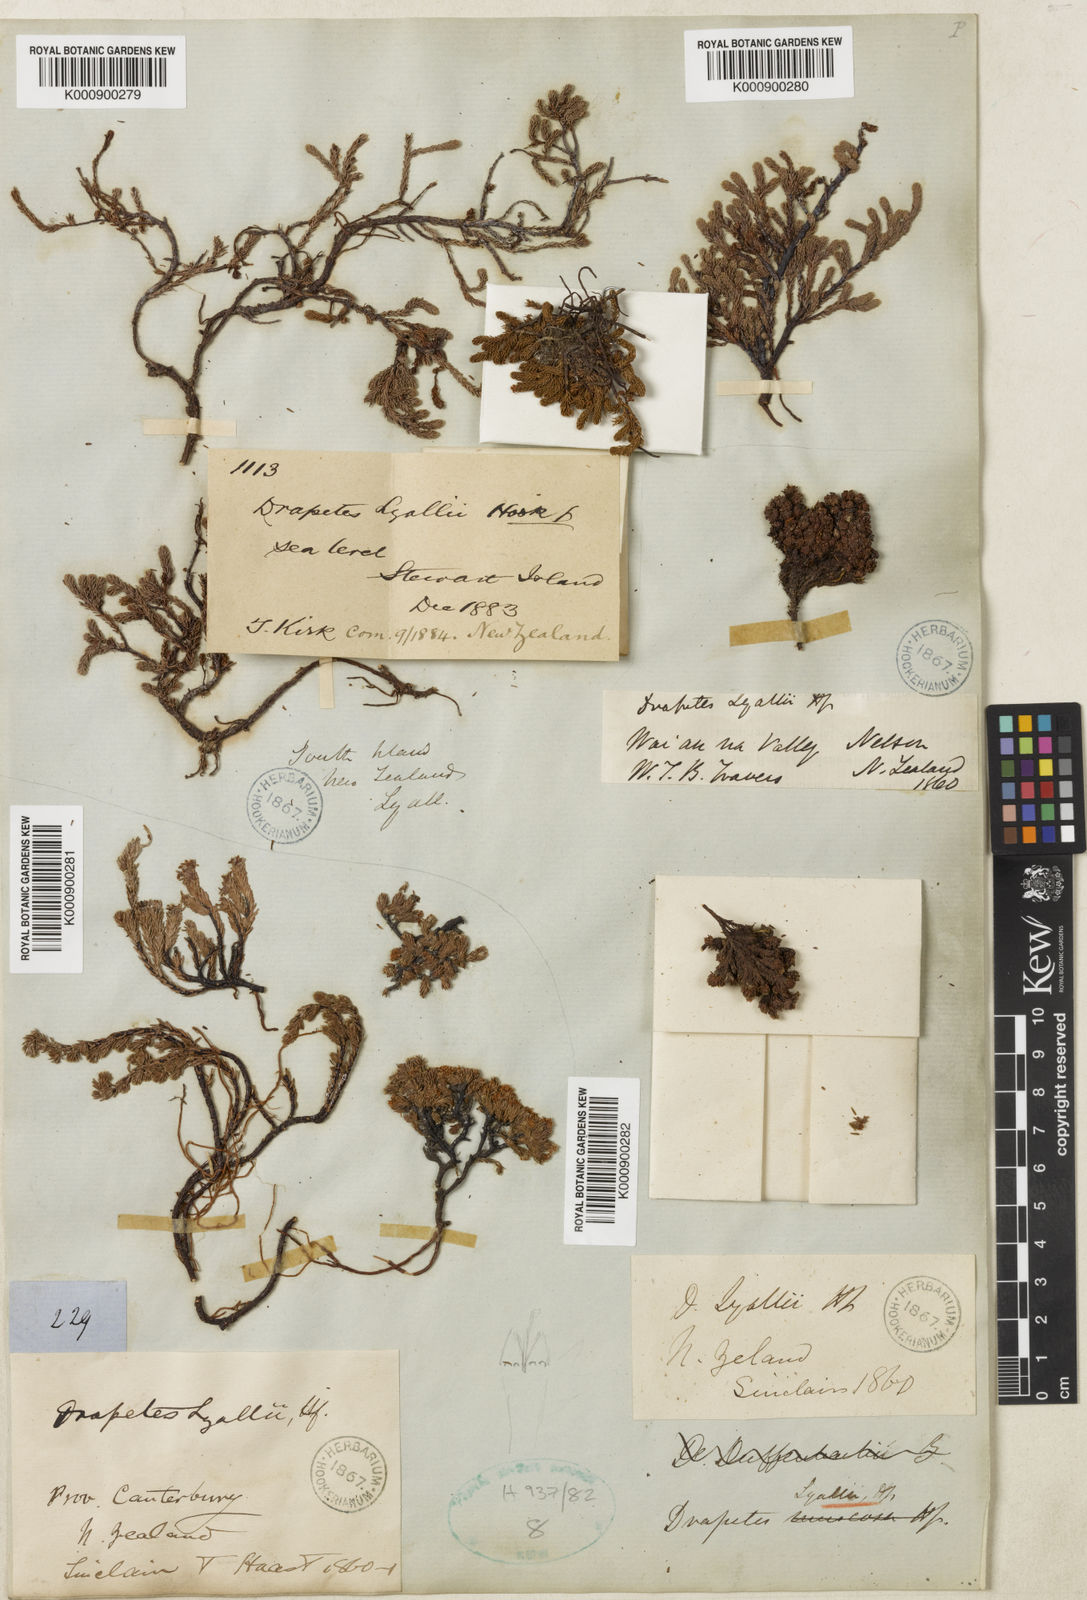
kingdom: Plantae
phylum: Tracheophyta
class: Magnoliopsida
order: Malvales
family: Thymelaeaceae
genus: Kelleria
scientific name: Kelleria lyallii
